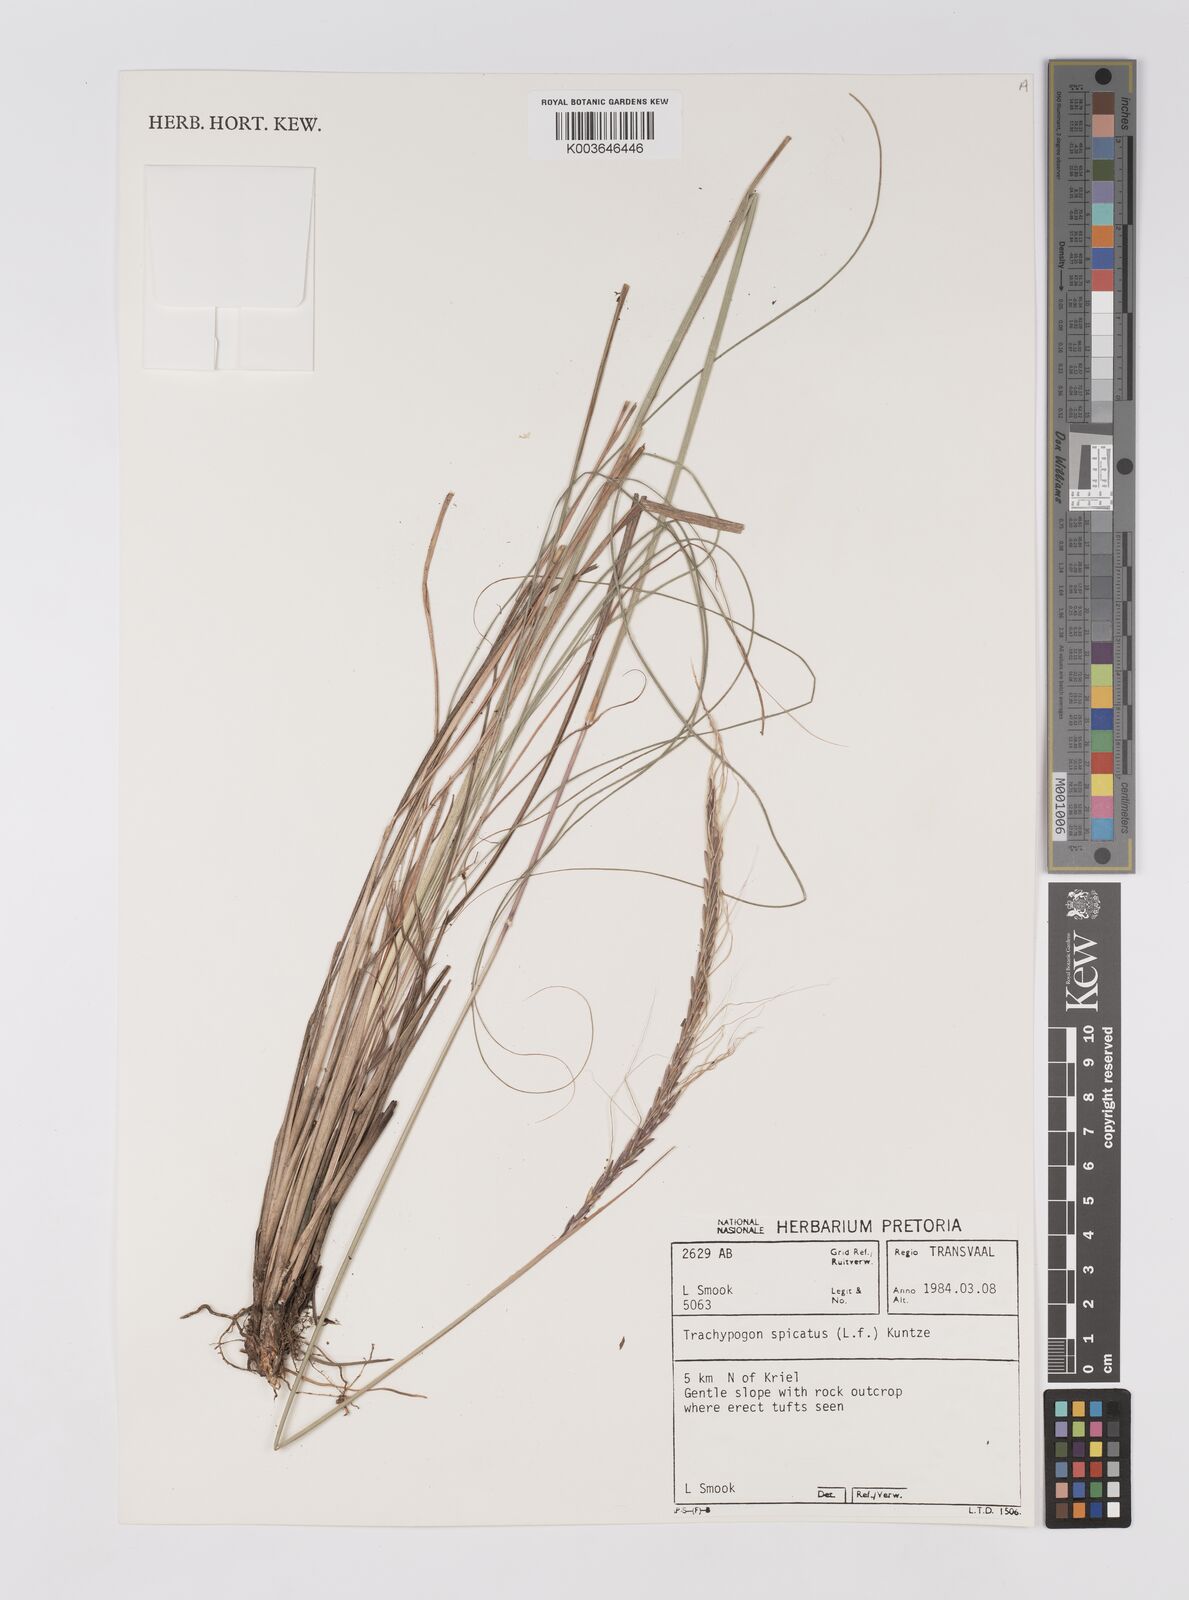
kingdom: Plantae
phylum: Tracheophyta
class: Liliopsida
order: Poales
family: Poaceae
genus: Trachypogon
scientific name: Trachypogon spicatus
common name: Crinkle-awn
